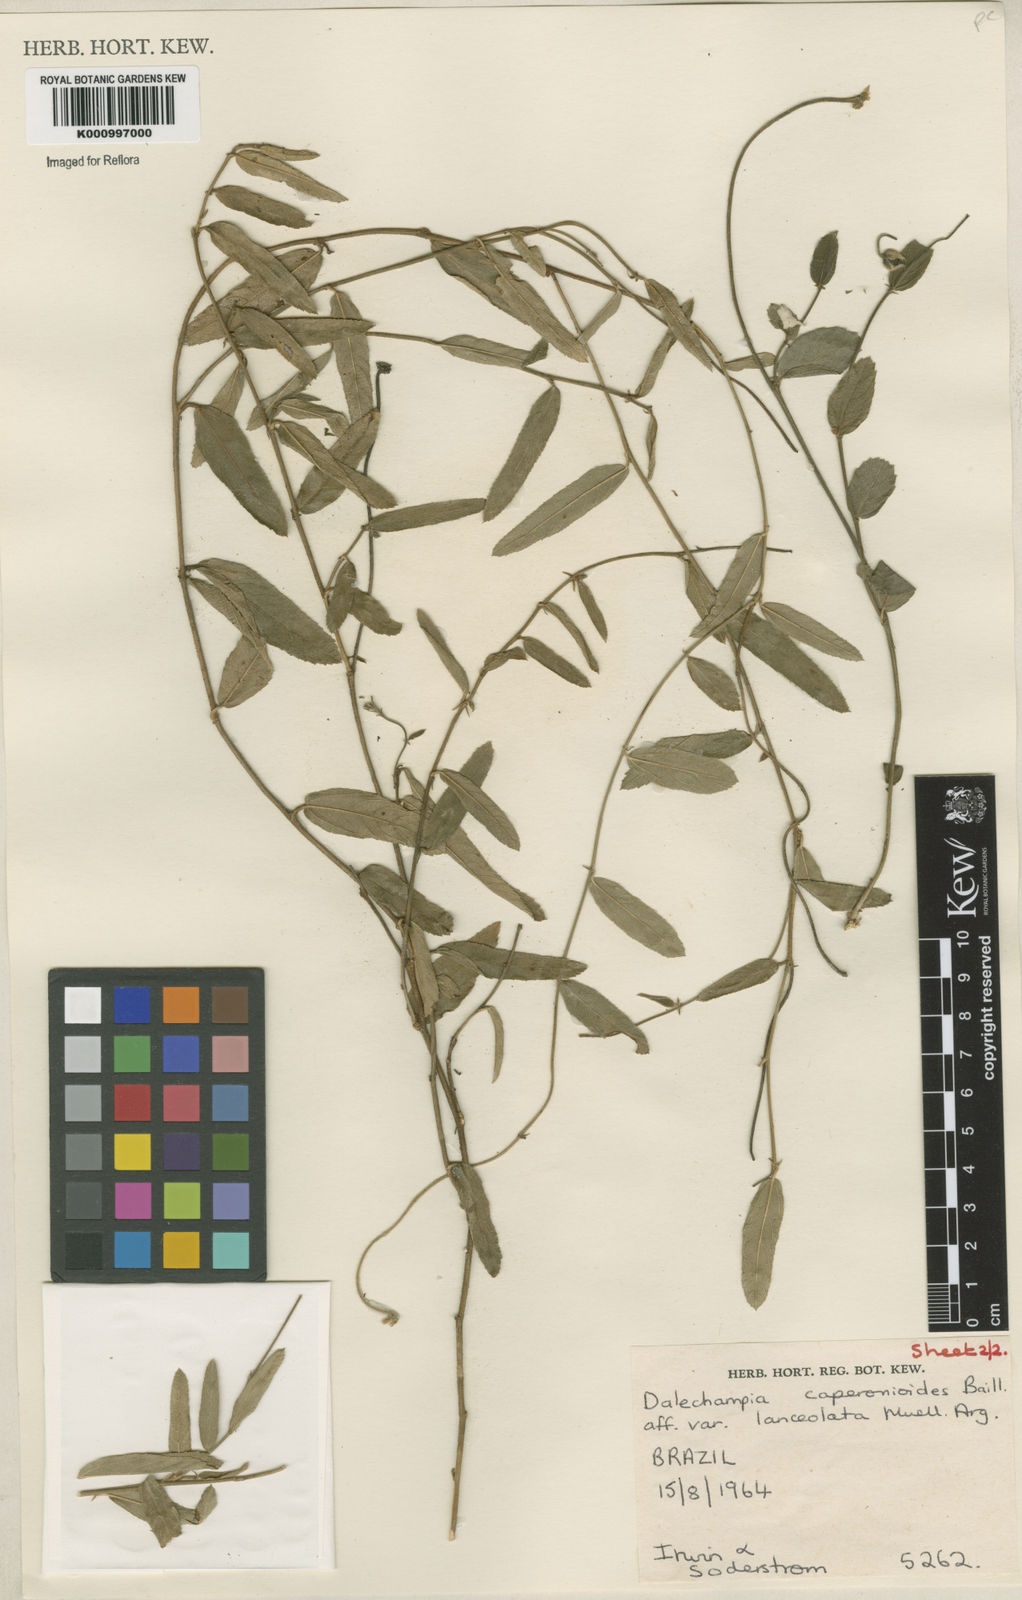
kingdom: Plantae
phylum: Tracheophyta
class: Magnoliopsida
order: Malpighiales
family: Euphorbiaceae
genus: Dalechampia
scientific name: Dalechampia caperonioides
